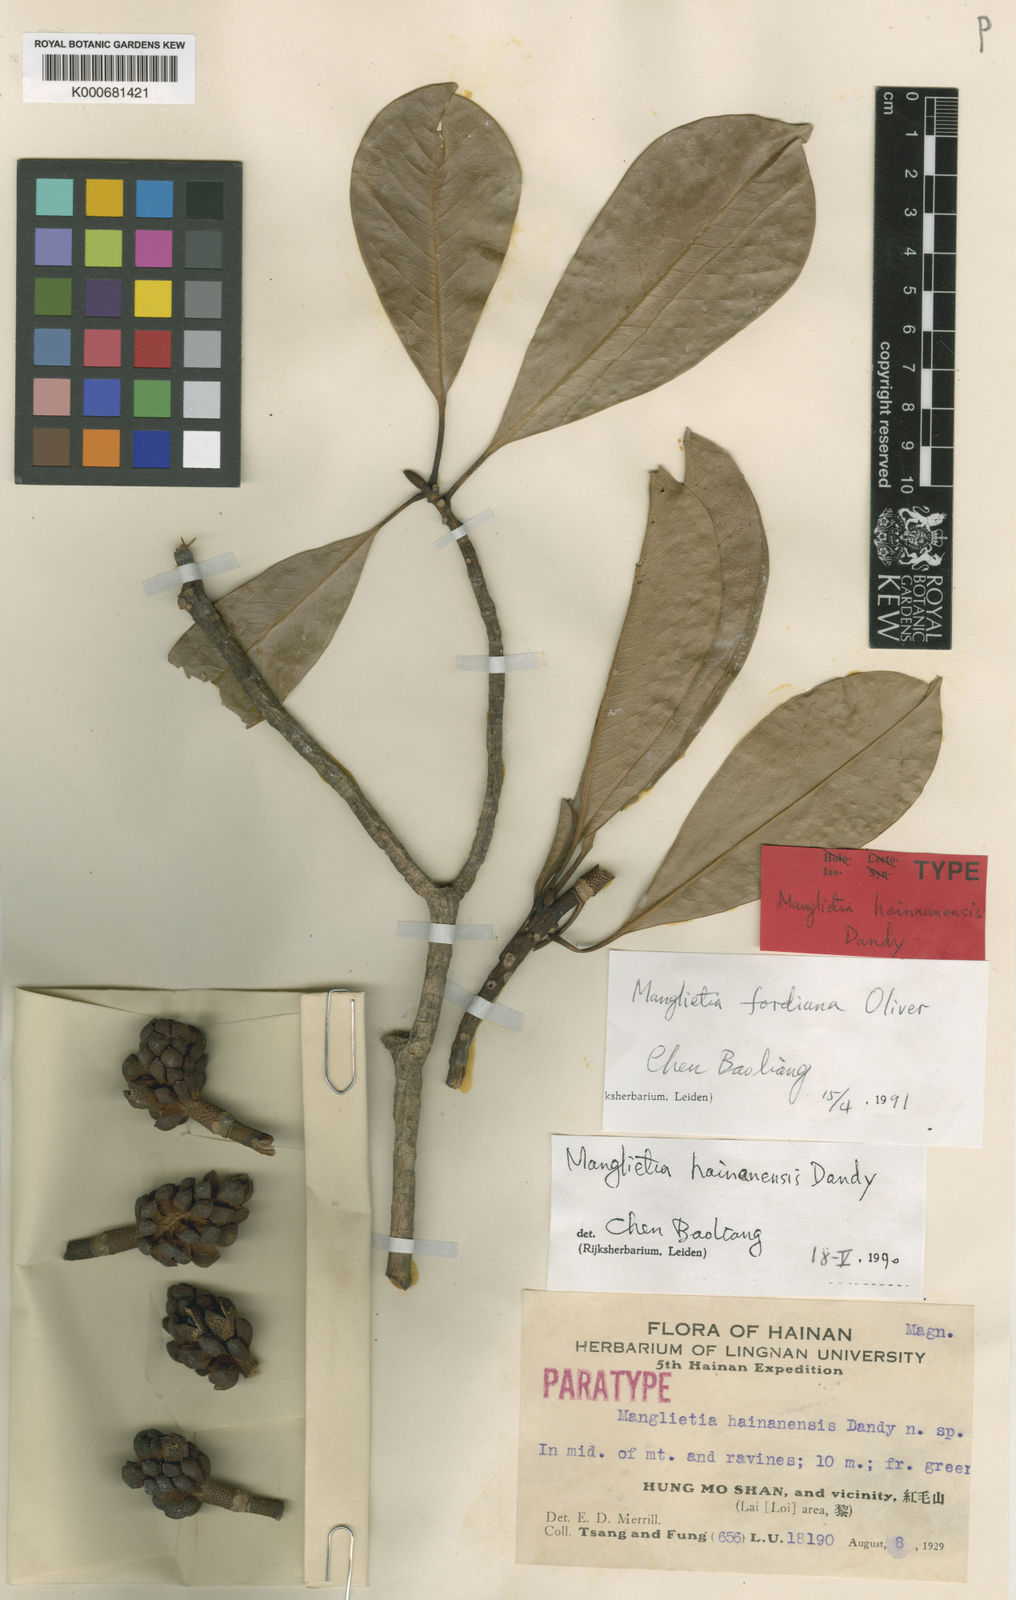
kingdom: Plantae
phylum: Tracheophyta
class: Magnoliopsida
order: Magnoliales
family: Magnoliaceae
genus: Magnolia
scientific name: Magnolia fordiana
